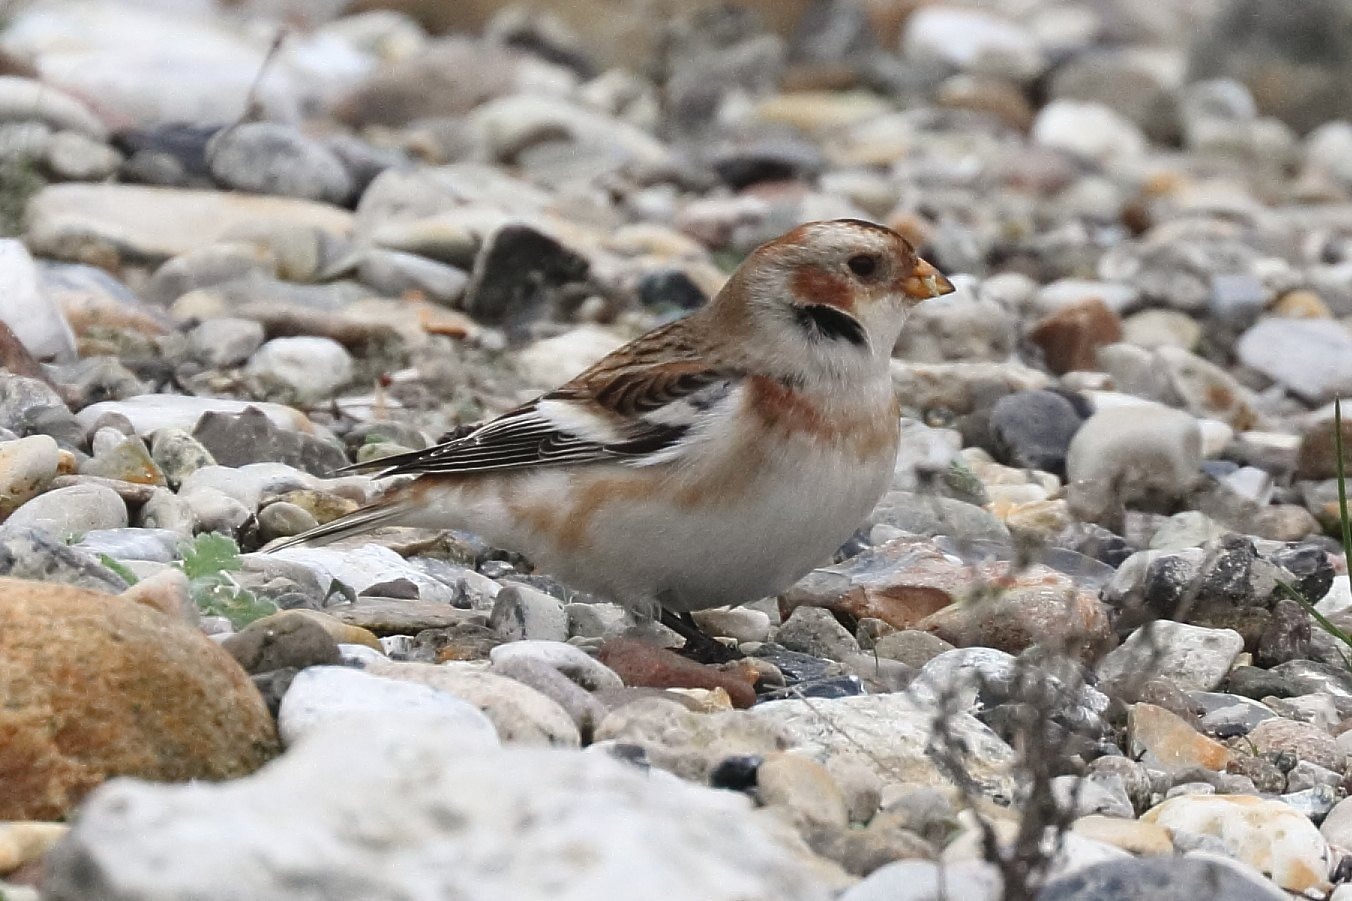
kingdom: Animalia
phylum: Chordata
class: Aves
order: Passeriformes
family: Calcariidae
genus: Plectrophenax
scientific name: Plectrophenax nivalis
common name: Snespurv
